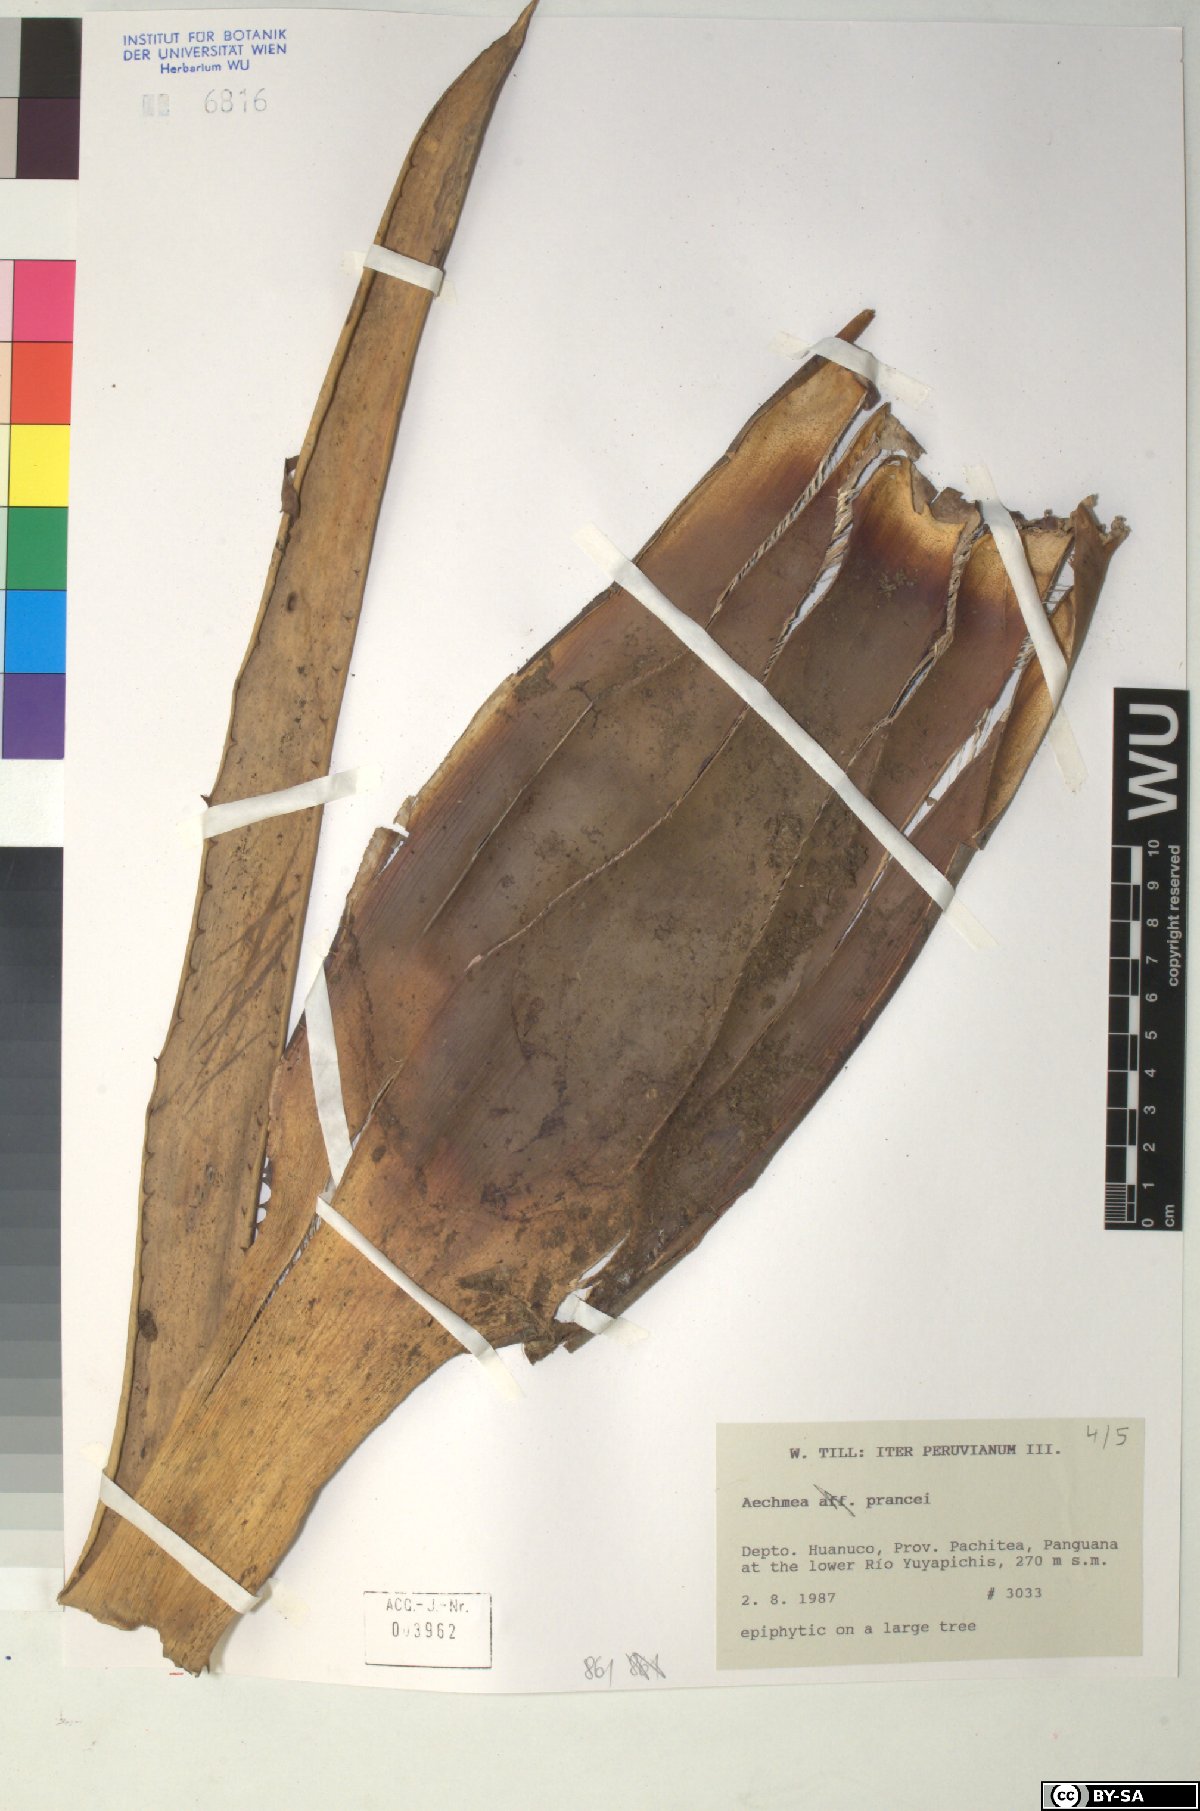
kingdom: Plantae
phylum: Tracheophyta
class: Liliopsida
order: Poales
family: Bromeliaceae
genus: Aechmea
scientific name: Aechmea prancei
